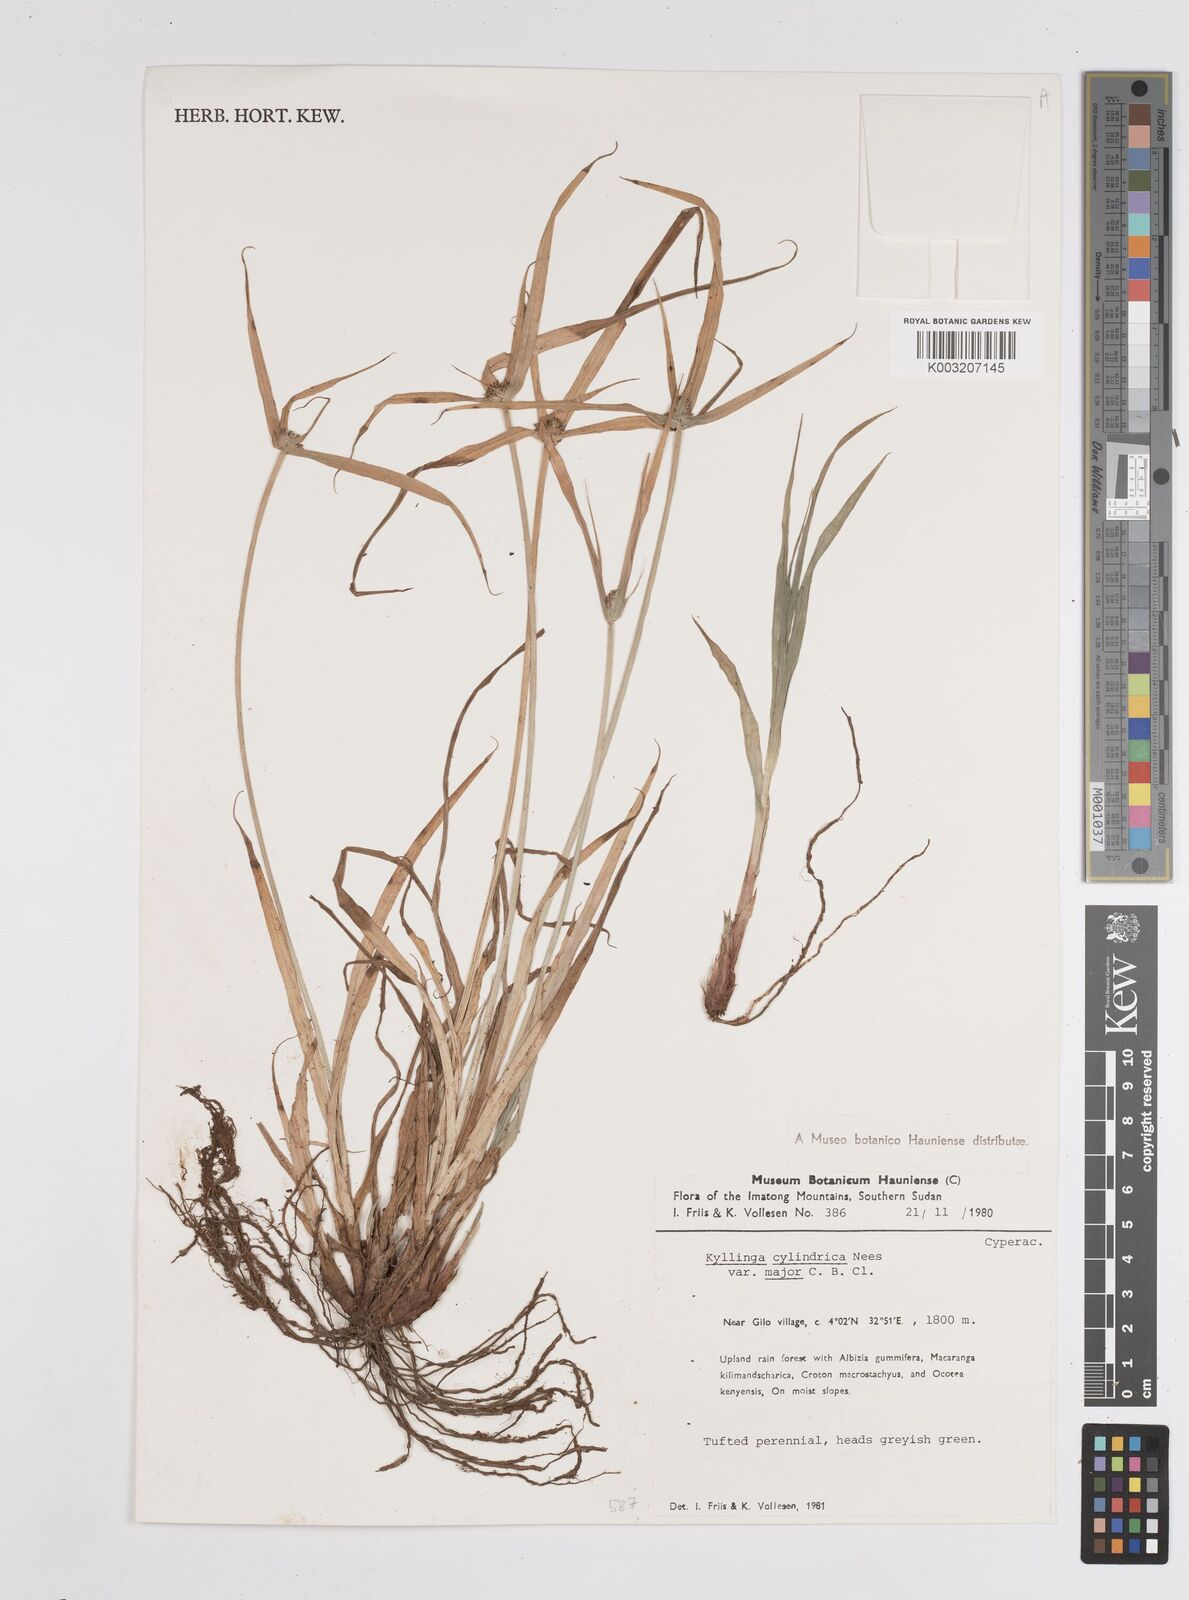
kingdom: Plantae
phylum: Tracheophyta
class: Liliopsida
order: Poales
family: Cyperaceae
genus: Cyperus
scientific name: Cyperus
